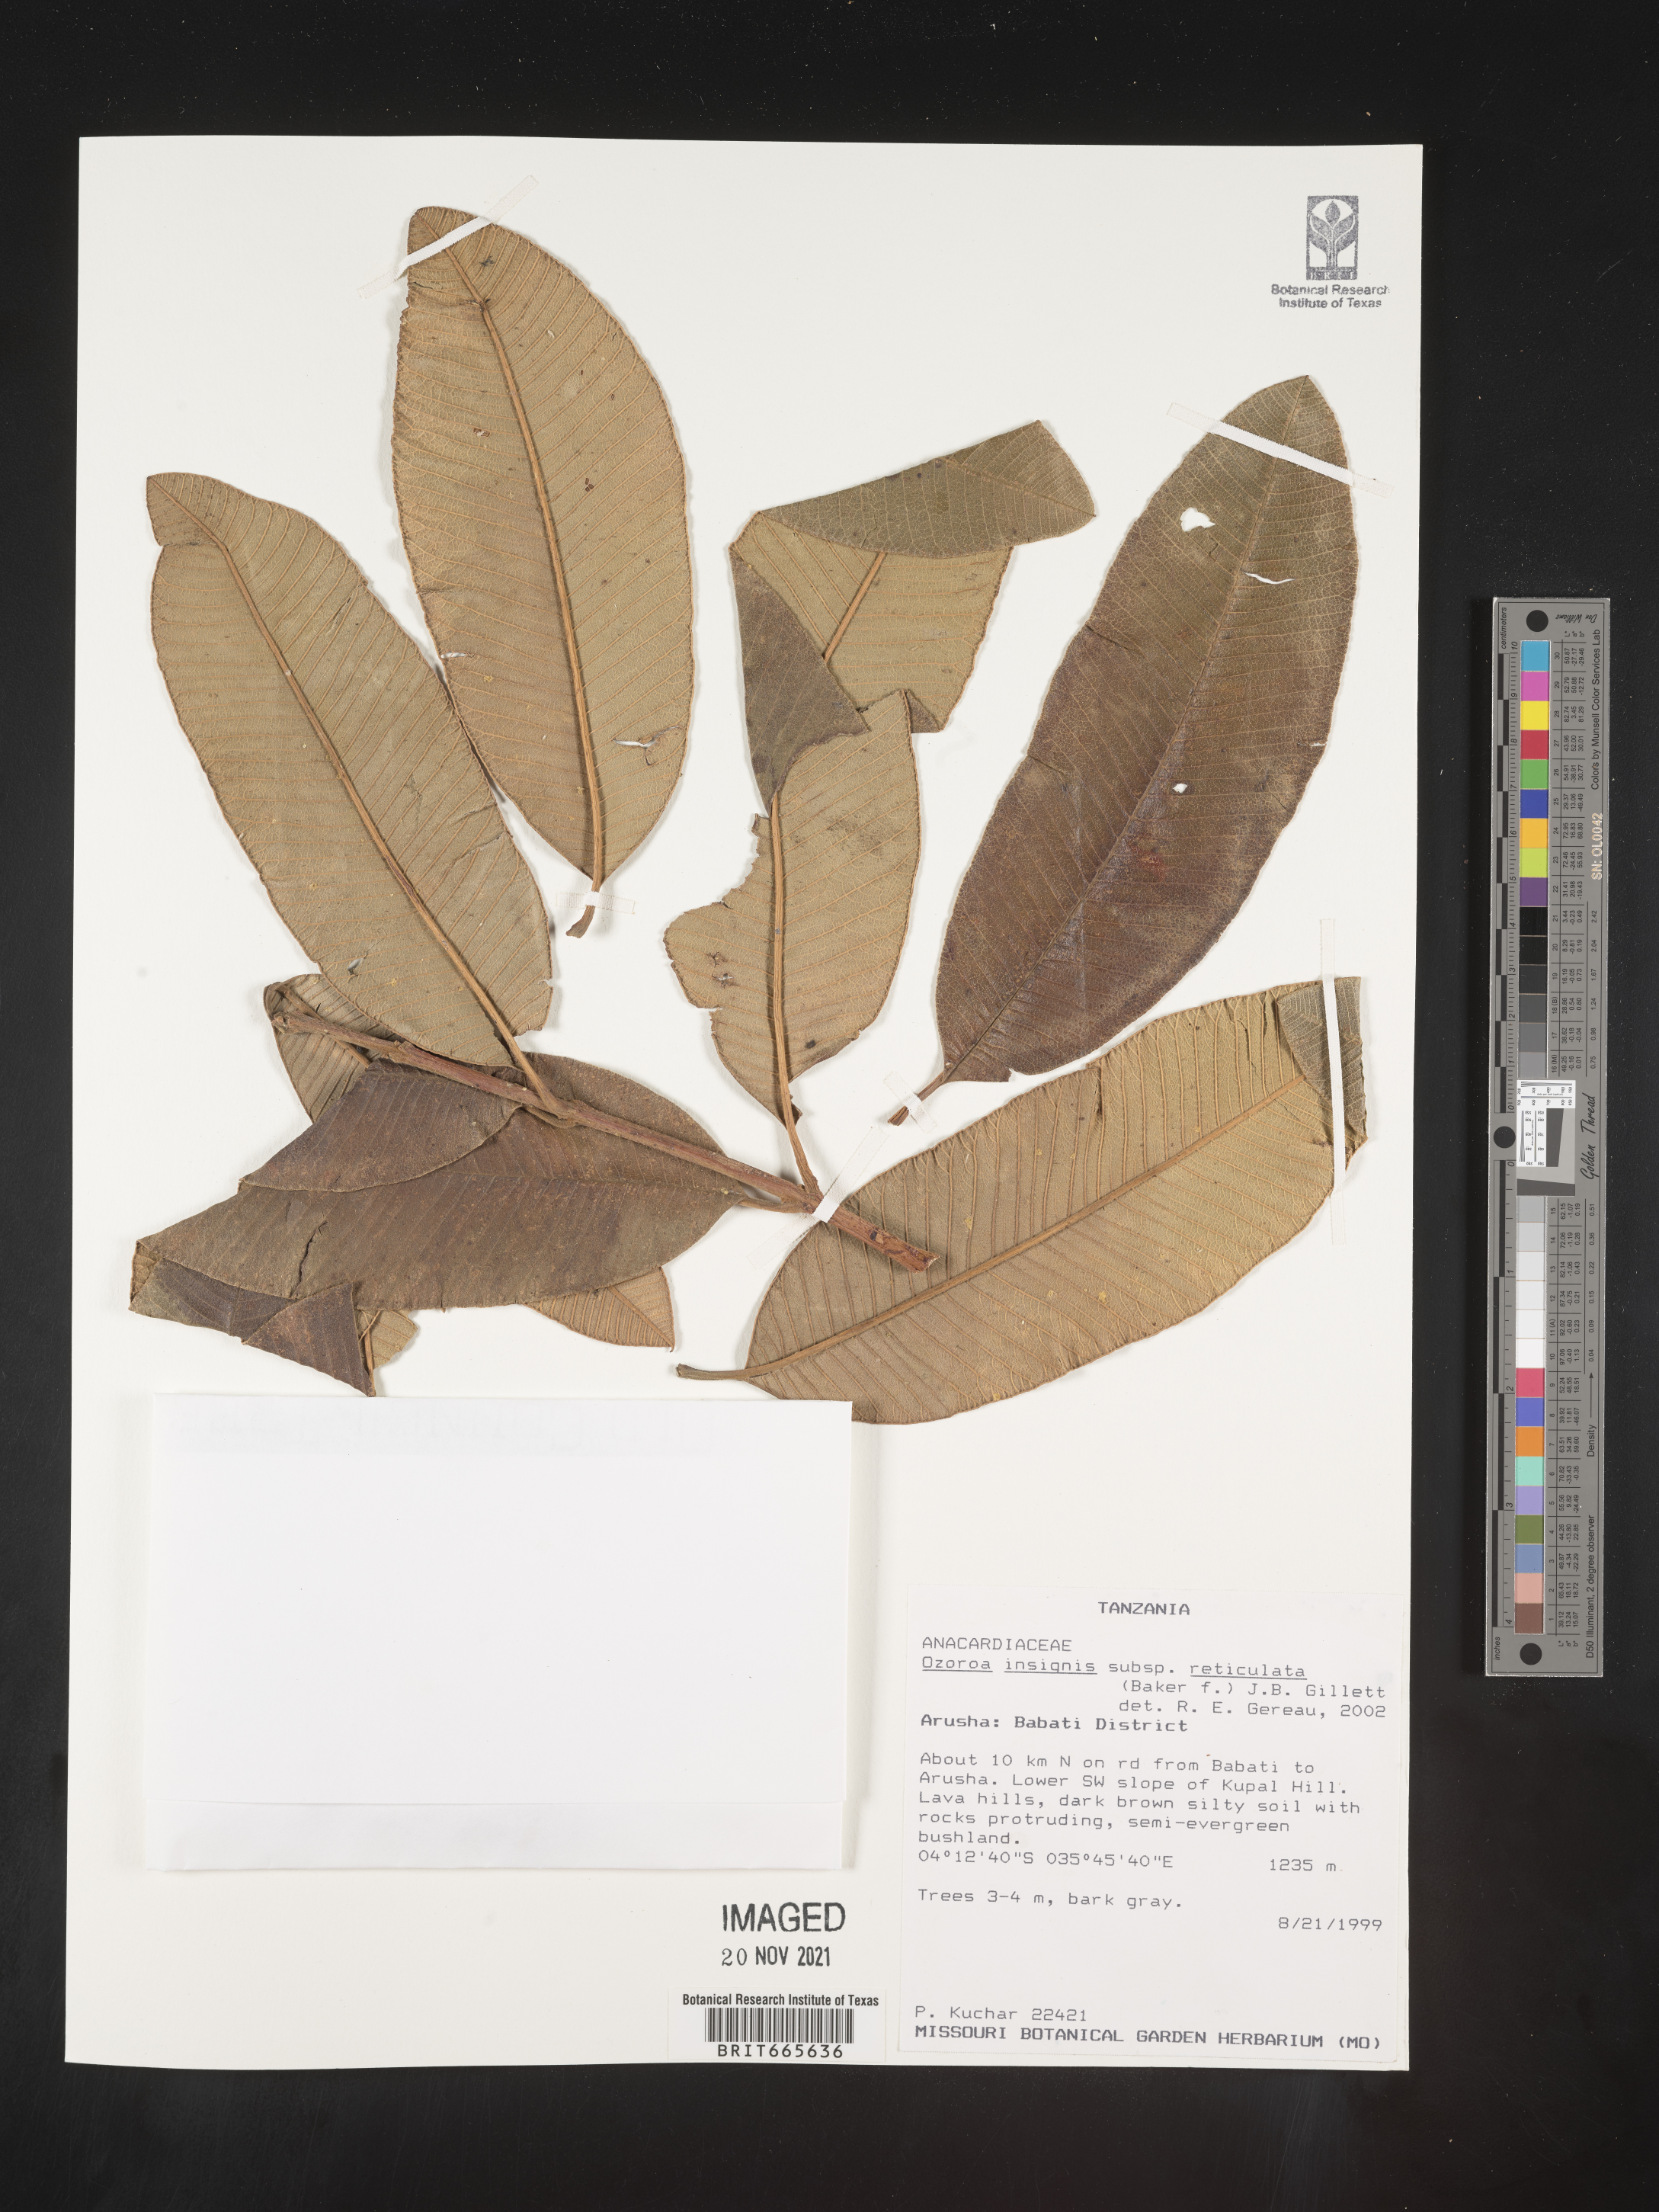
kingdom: Plantae
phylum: Tracheophyta
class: Magnoliopsida
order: Sapindales
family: Anacardiaceae
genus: Ozoroa
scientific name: Ozoroa
